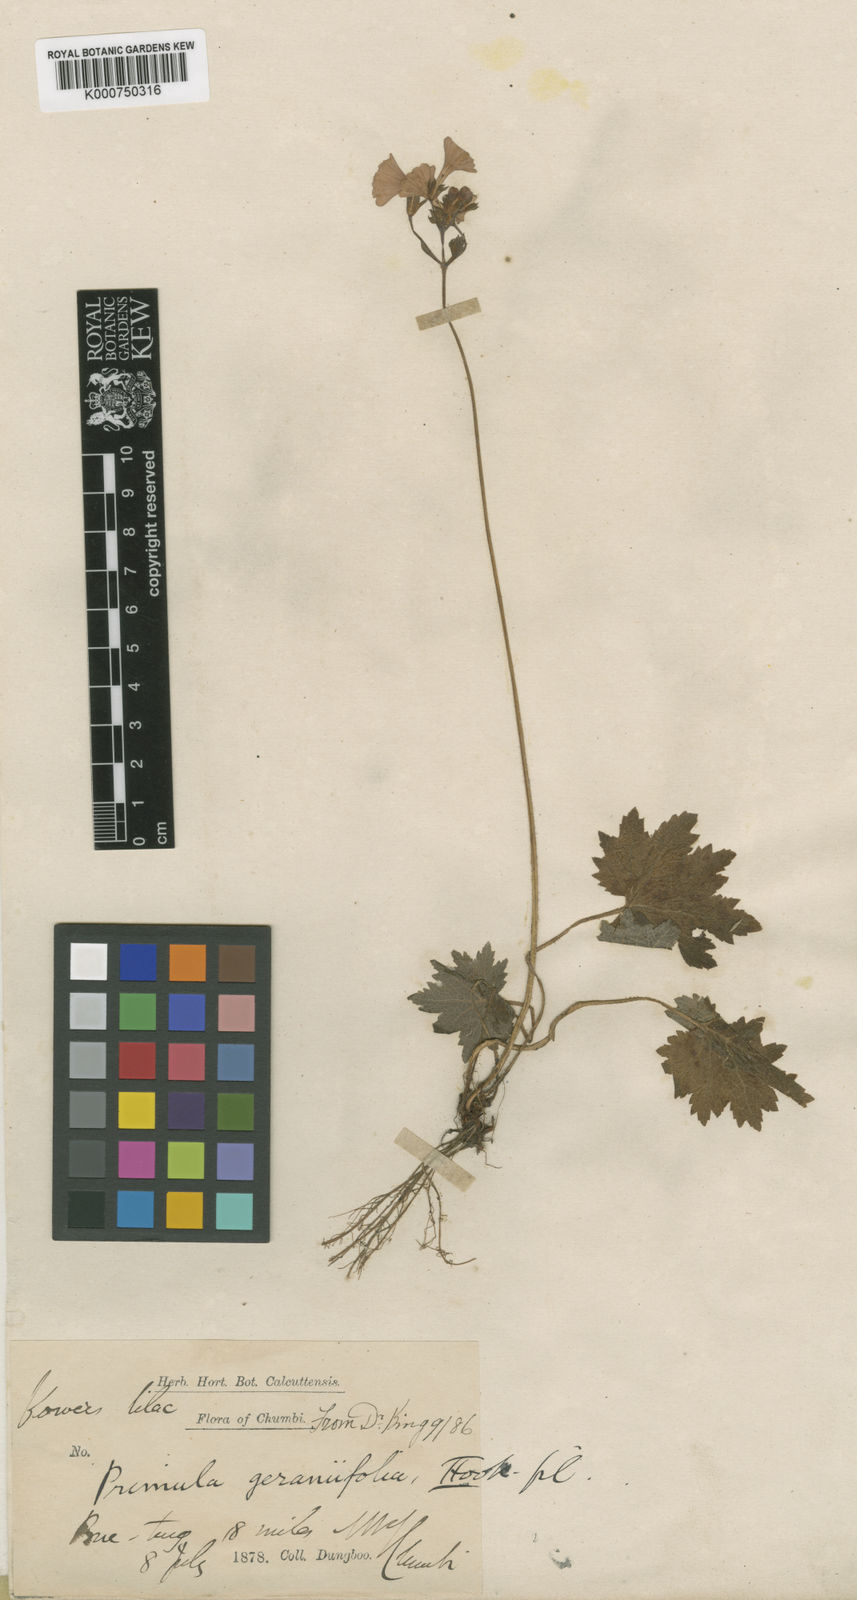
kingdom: Plantae
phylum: Tracheophyta
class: Magnoliopsida
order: Ericales
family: Primulaceae
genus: Primula
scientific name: Primula geraniifolia
